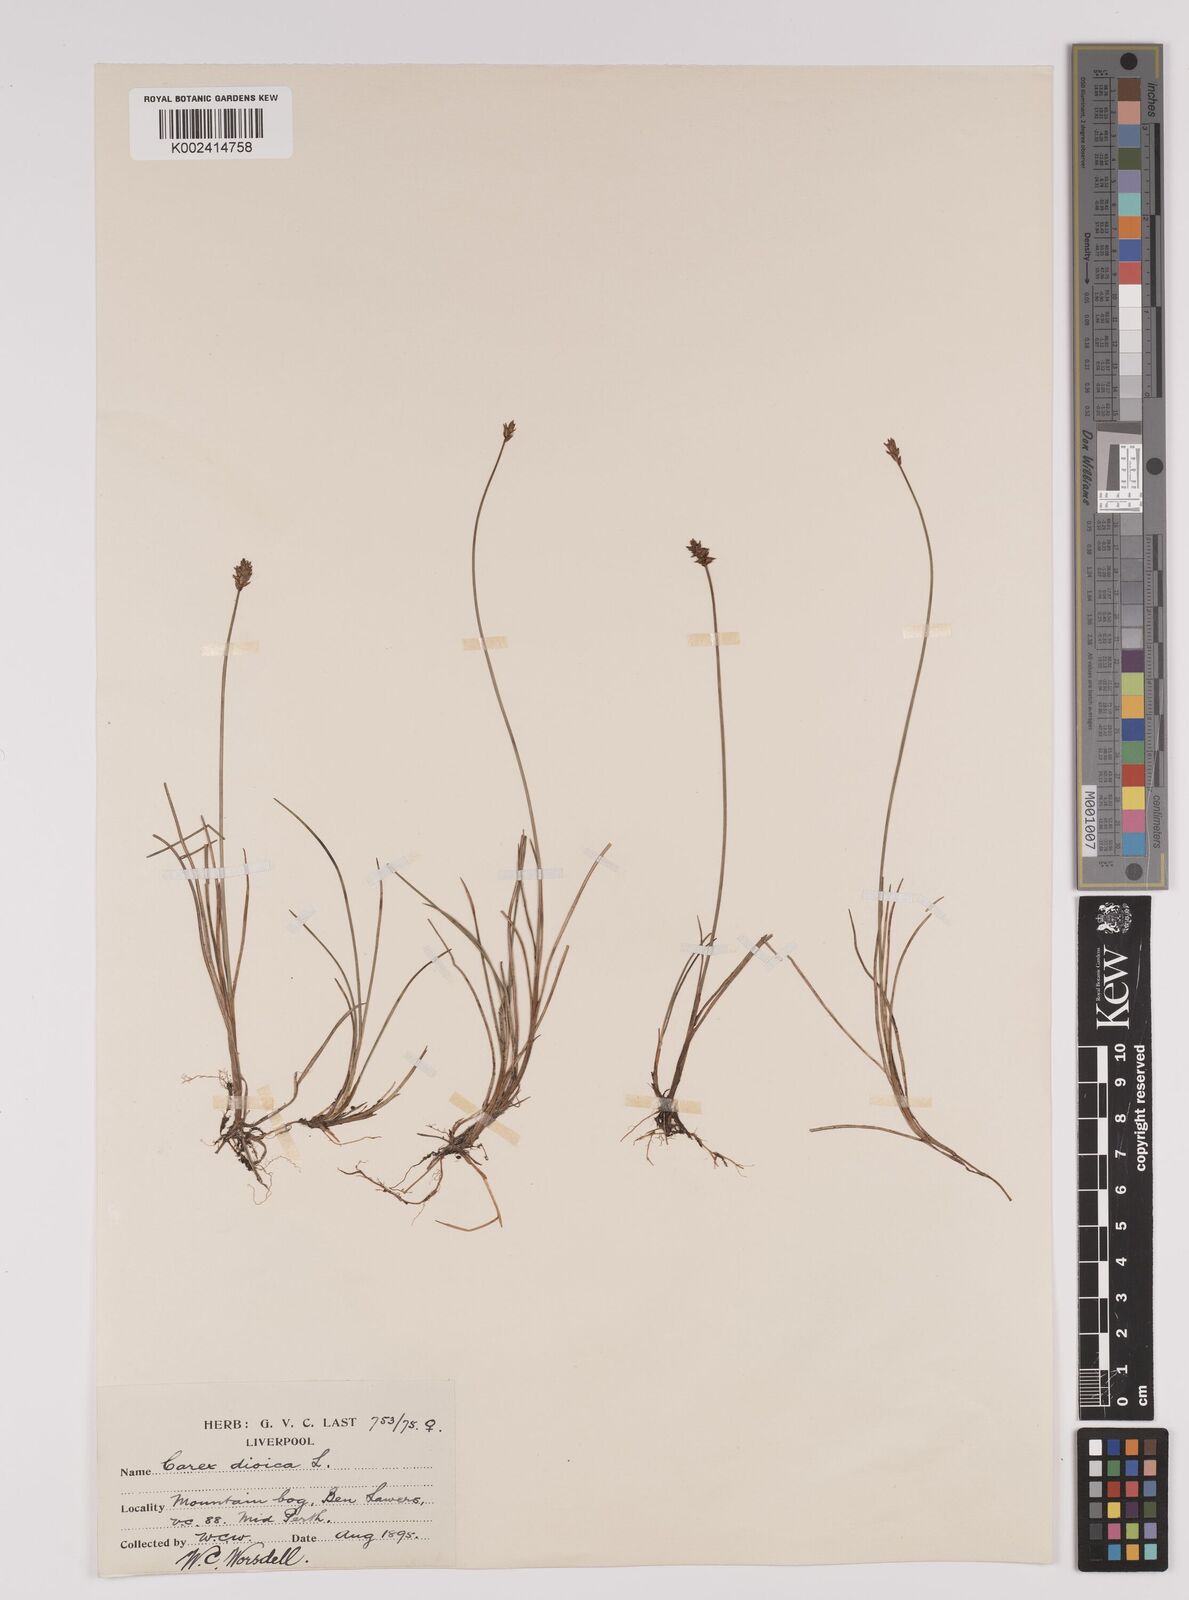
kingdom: Plantae
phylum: Tracheophyta
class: Liliopsida
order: Poales
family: Cyperaceae
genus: Carex
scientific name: Carex dioica
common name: Dioecious sedge
